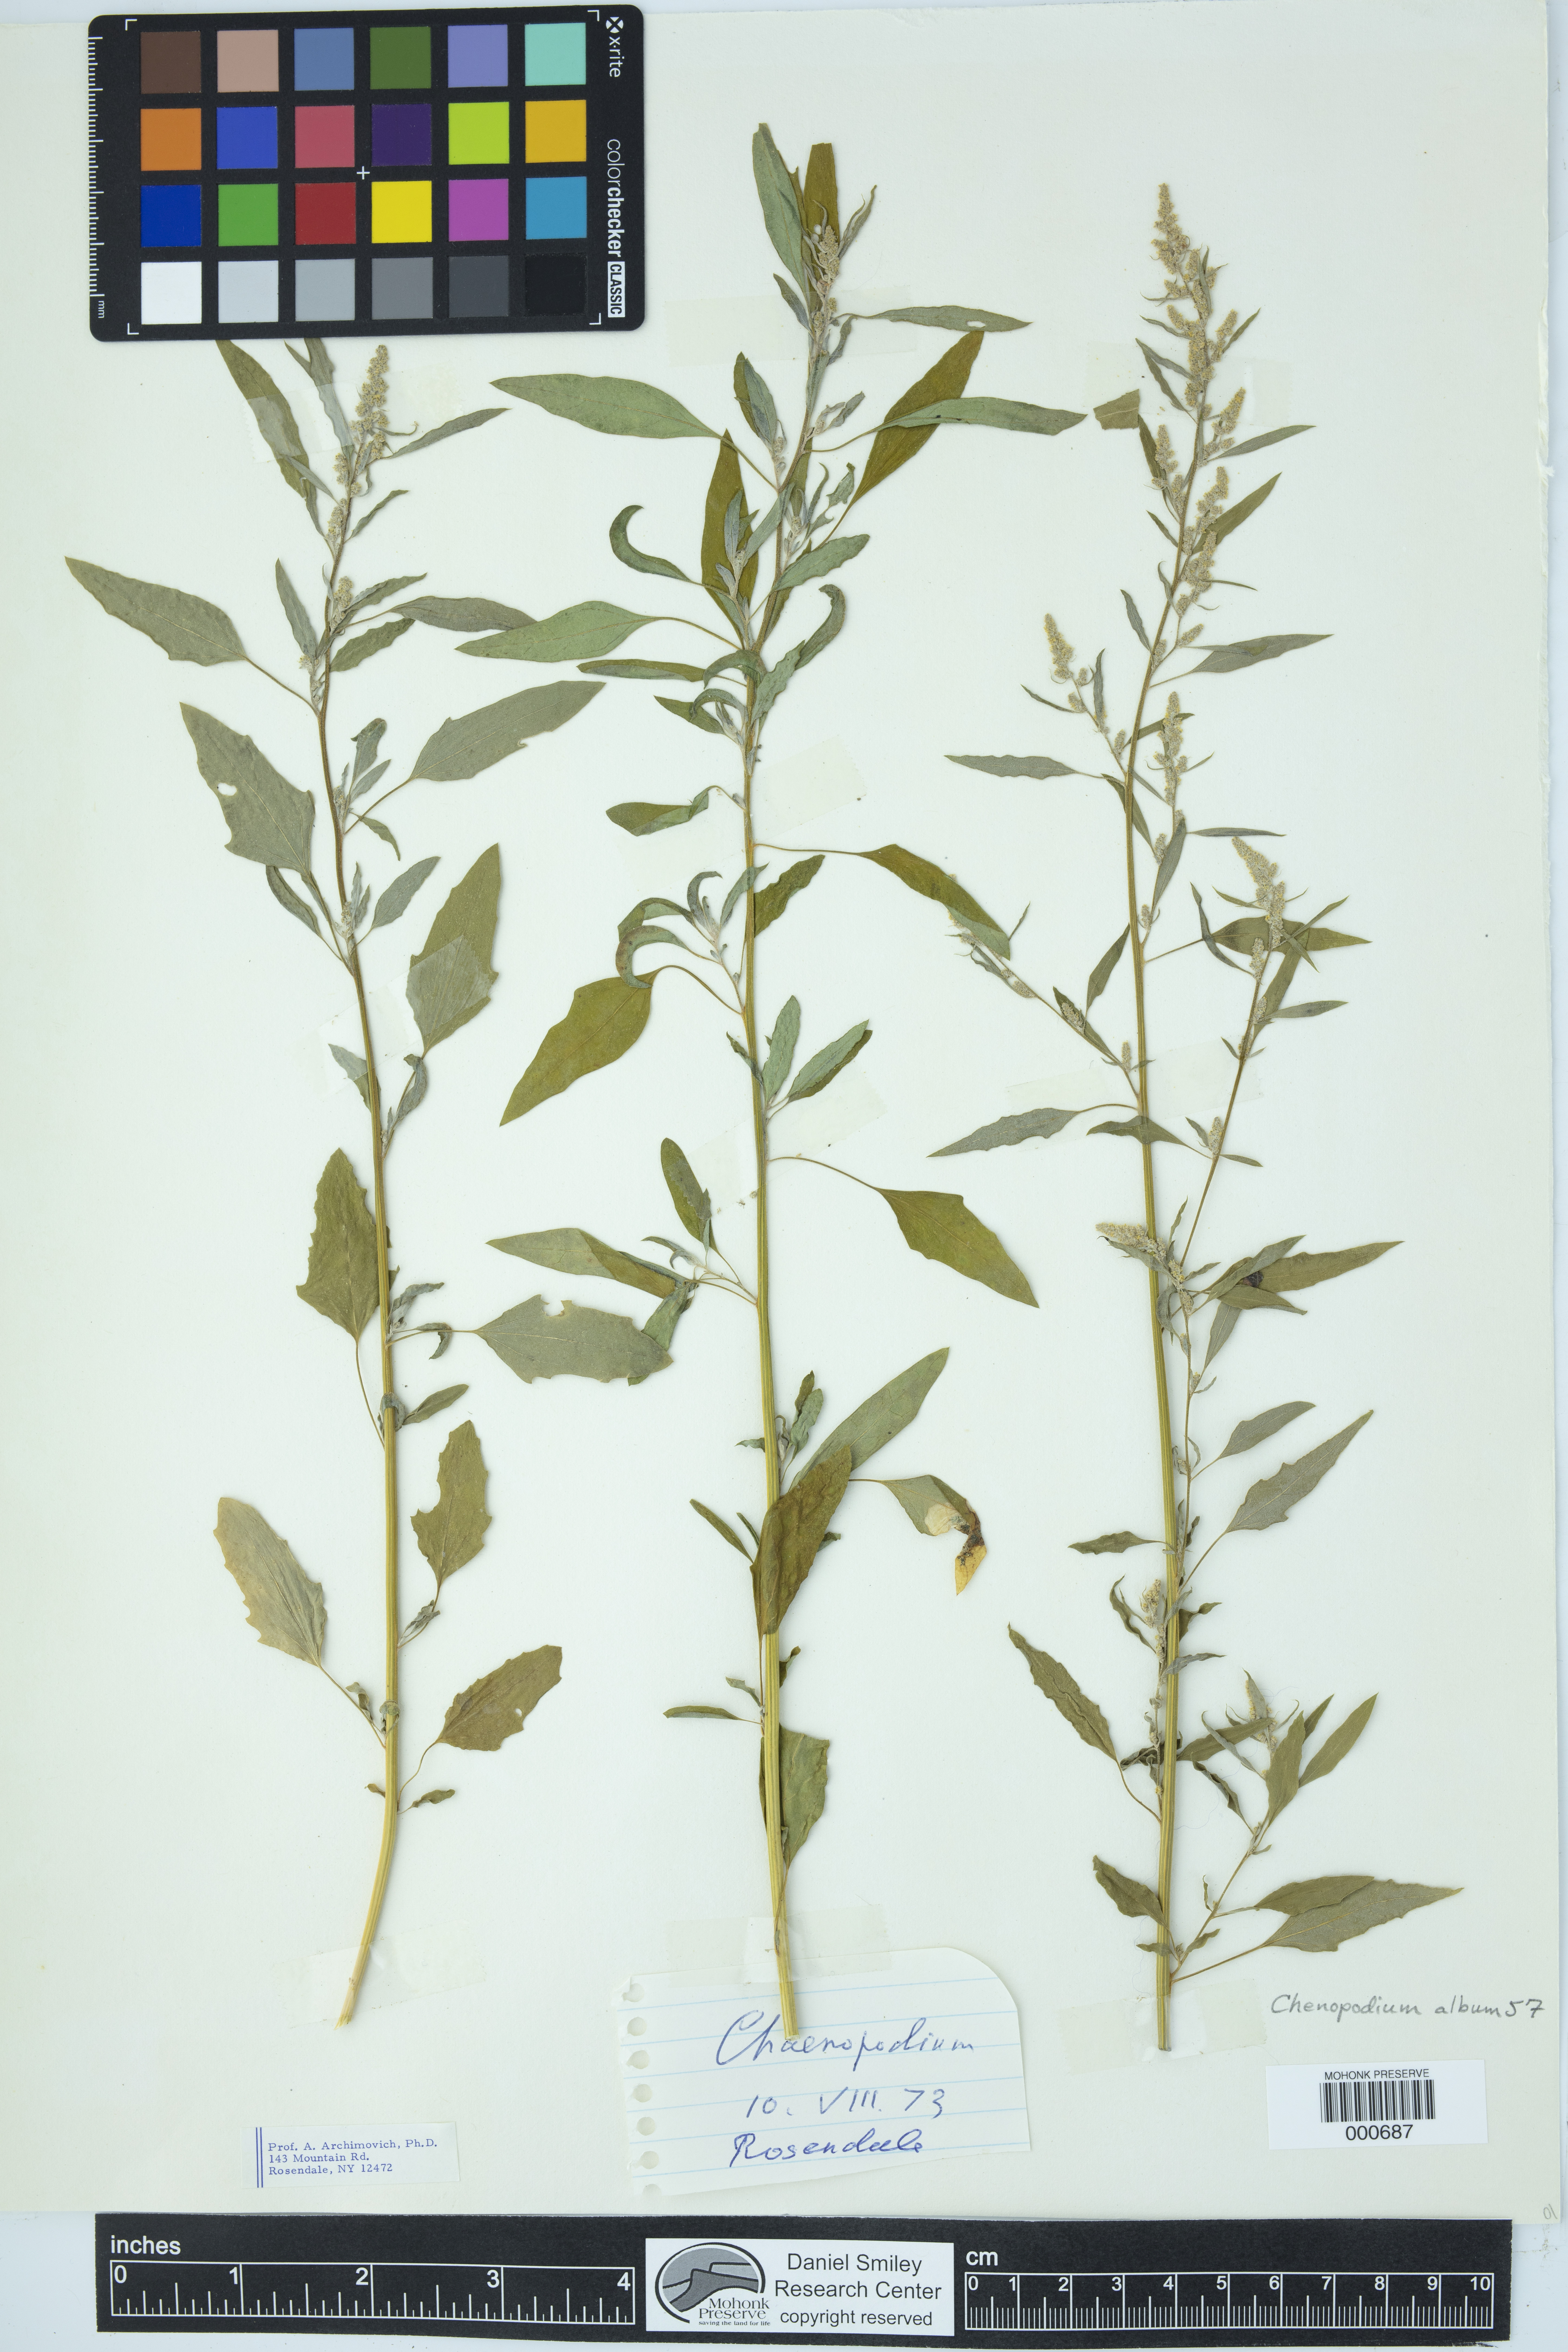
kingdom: Plantae
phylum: Tracheophyta
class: Magnoliopsida
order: Caryophyllales
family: Amaranthaceae
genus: Chenopodium
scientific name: Chenopodium album
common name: Fat-hen
